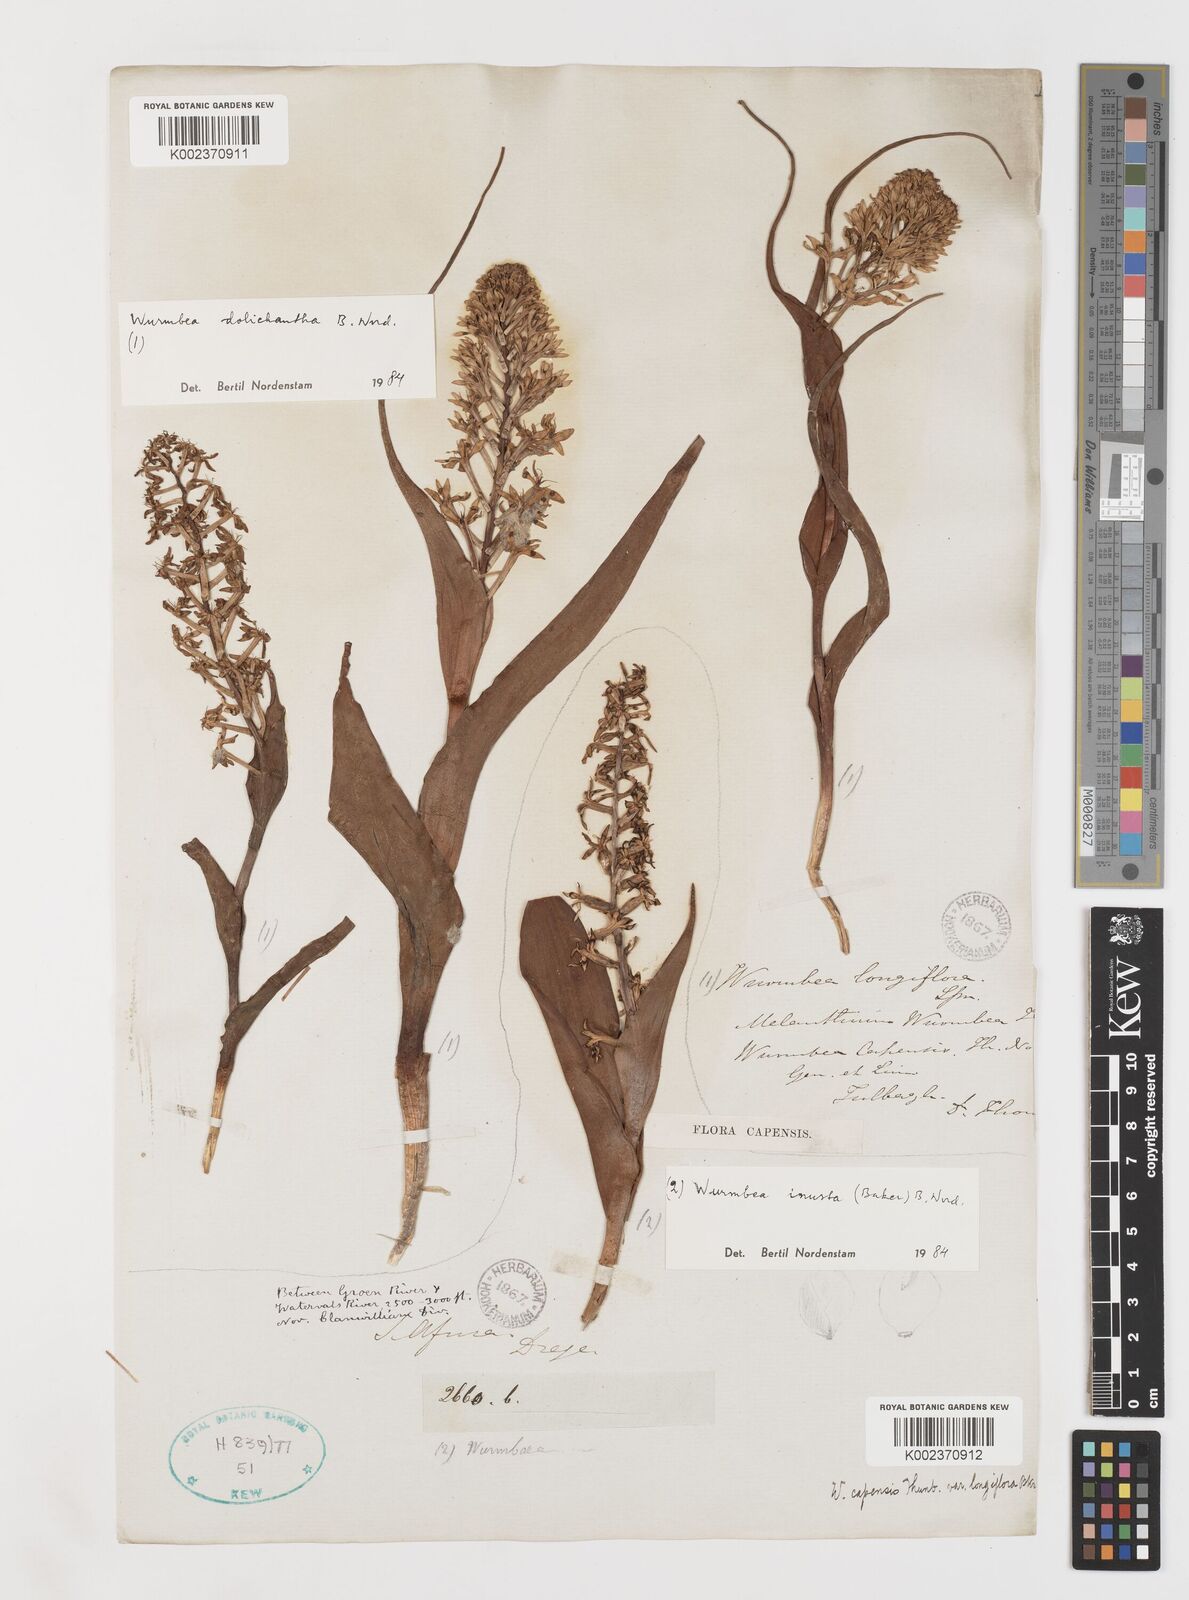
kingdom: Plantae
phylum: Tracheophyta
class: Liliopsida
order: Liliales
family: Colchicaceae
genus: Wurmbea
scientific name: Wurmbea dolichantha
